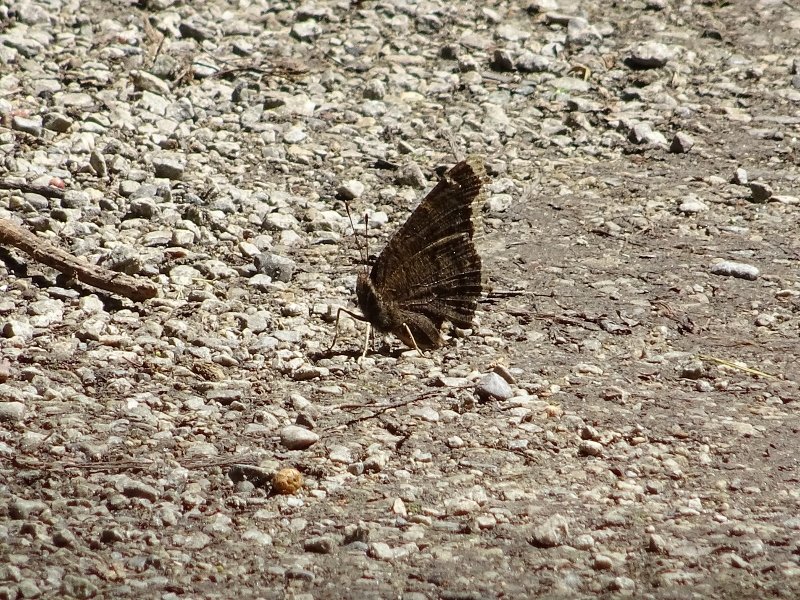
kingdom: Animalia
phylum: Arthropoda
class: Insecta
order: Lepidoptera
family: Nymphalidae
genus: Nymphalis
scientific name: Nymphalis antiopa
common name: Mourning Cloak
